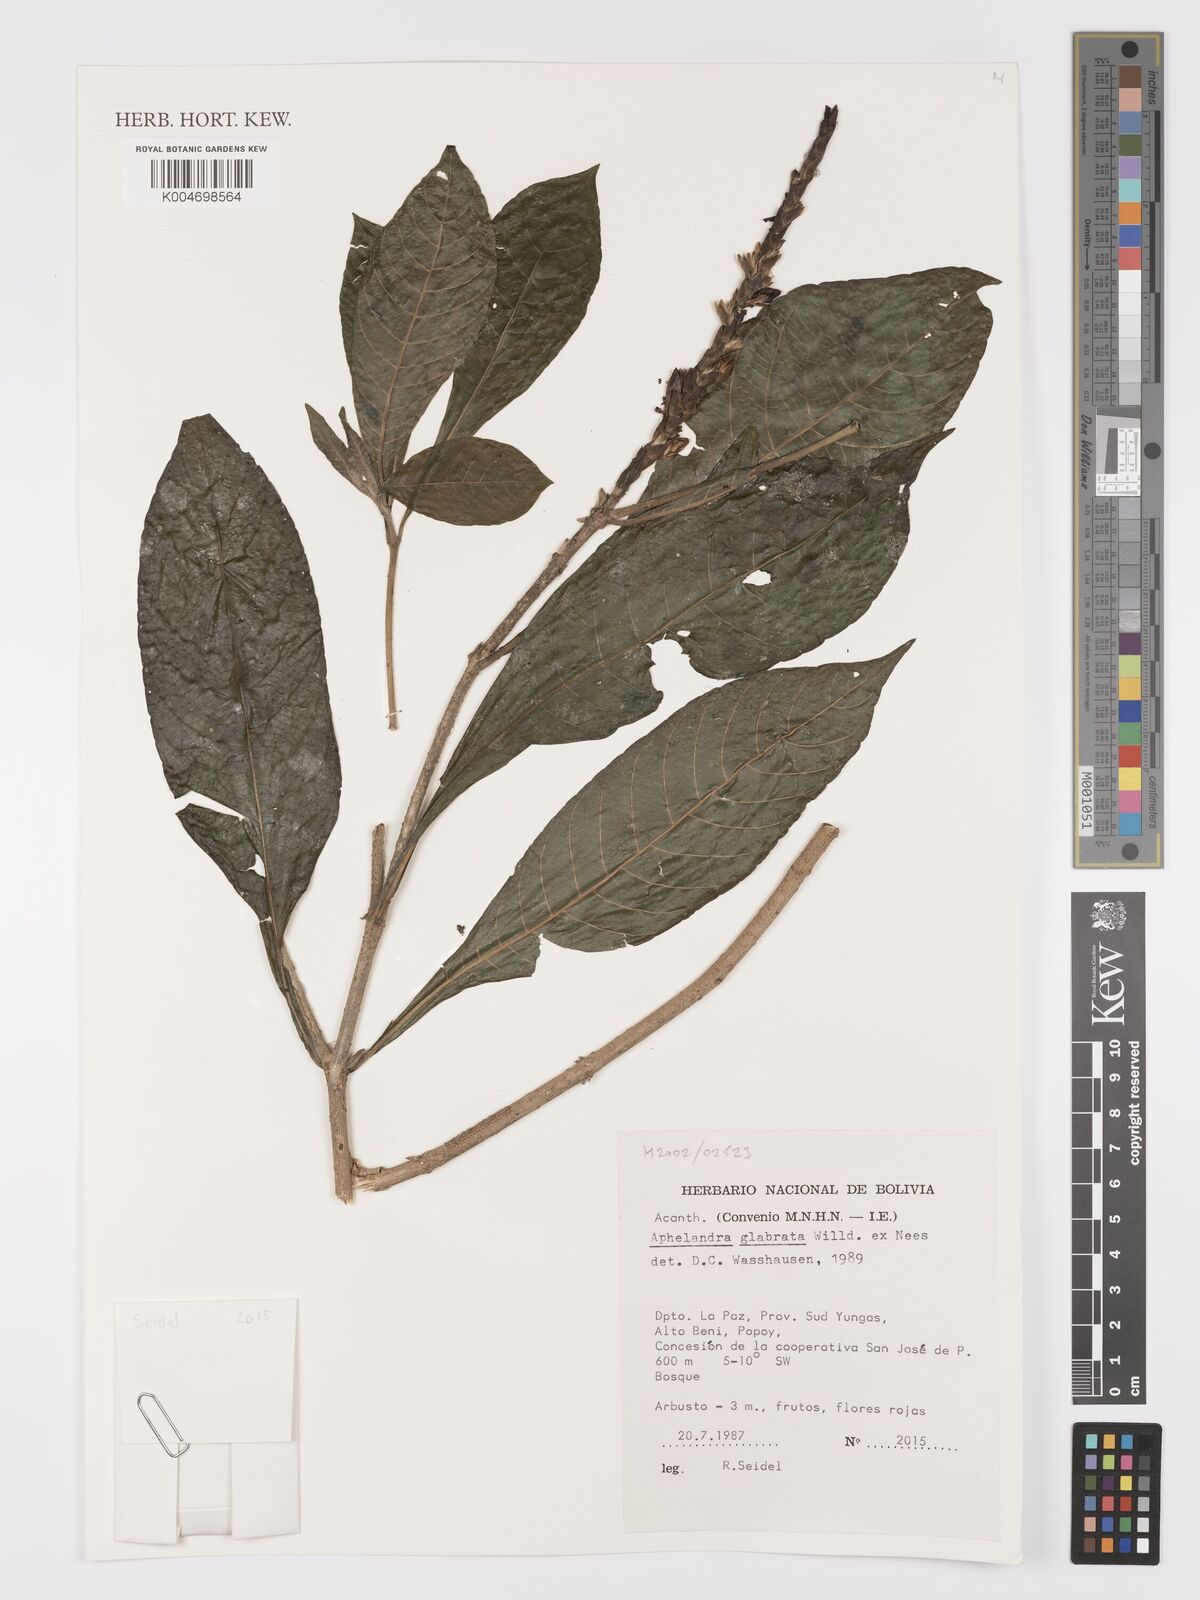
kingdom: Plantae
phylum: Tracheophyta
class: Magnoliopsida
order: Lamiales
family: Acanthaceae
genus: Aphelandra
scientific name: Aphelandra glabrata
